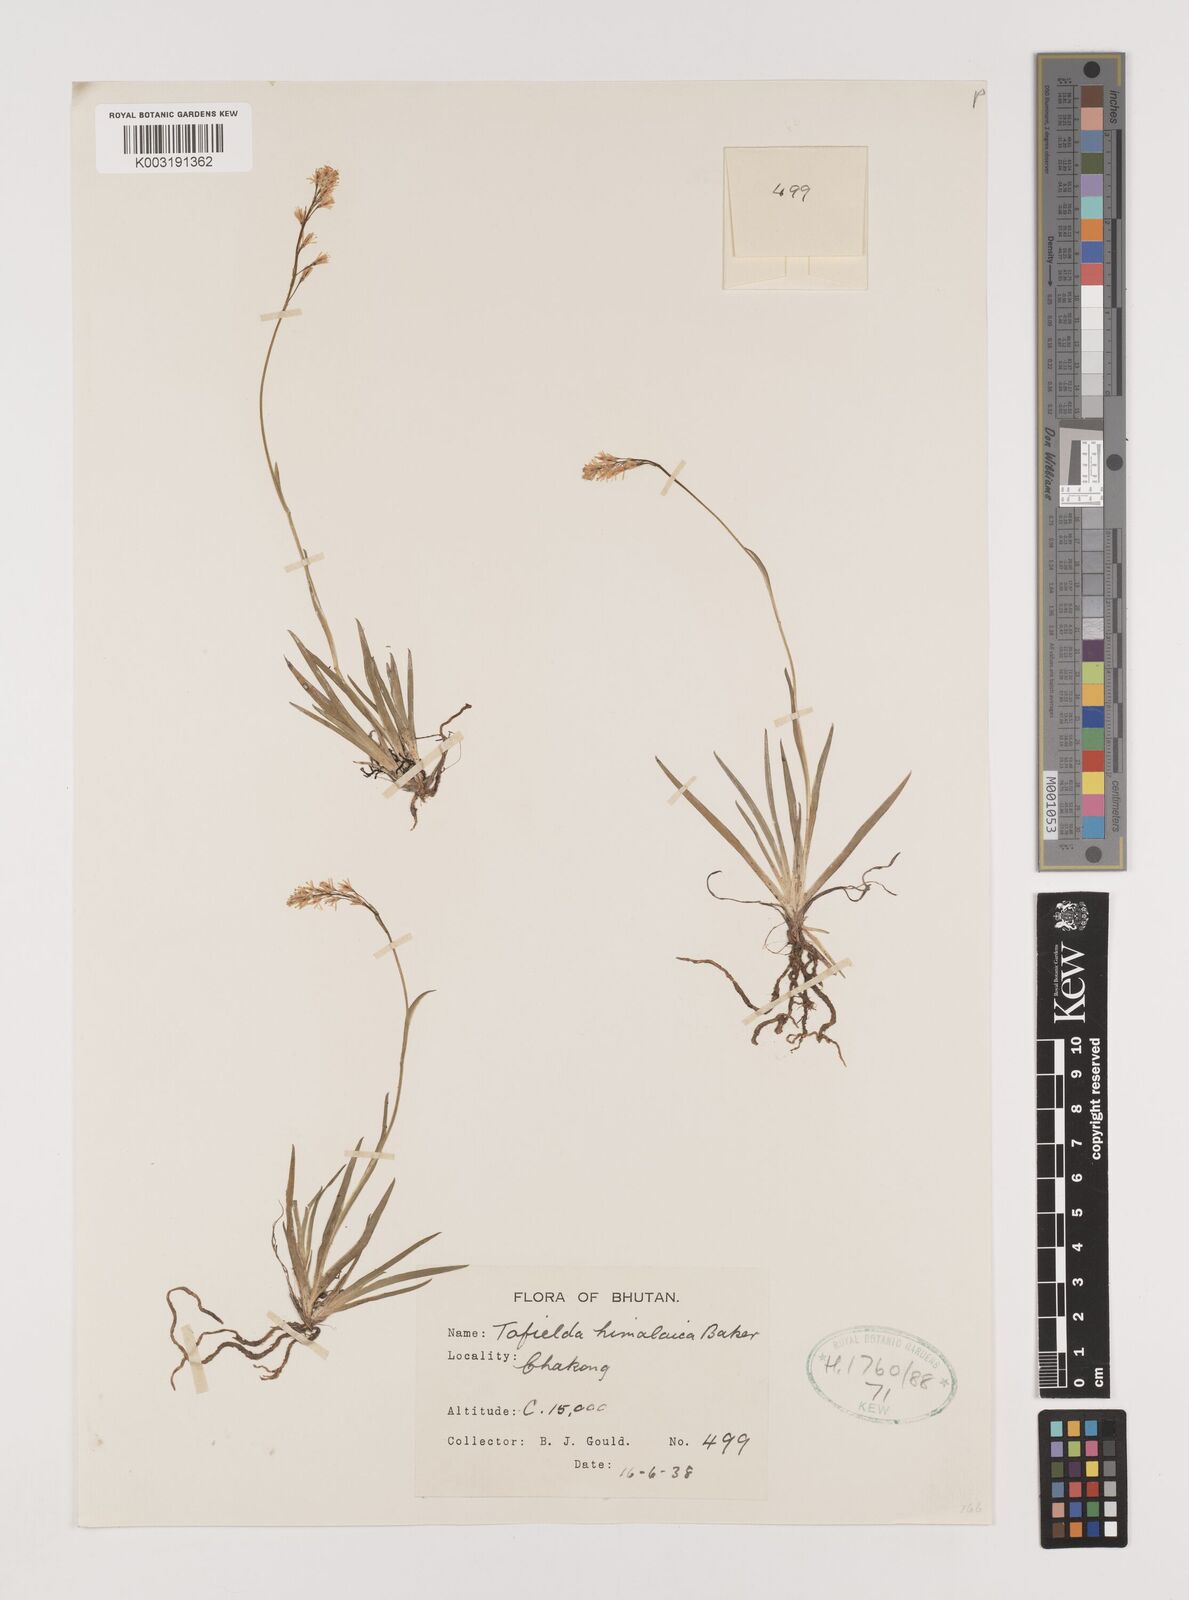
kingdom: Plantae
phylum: Tracheophyta
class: Liliopsida
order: Alismatales
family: Tofieldiaceae
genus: Tofieldia
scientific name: Tofieldia himalaica
